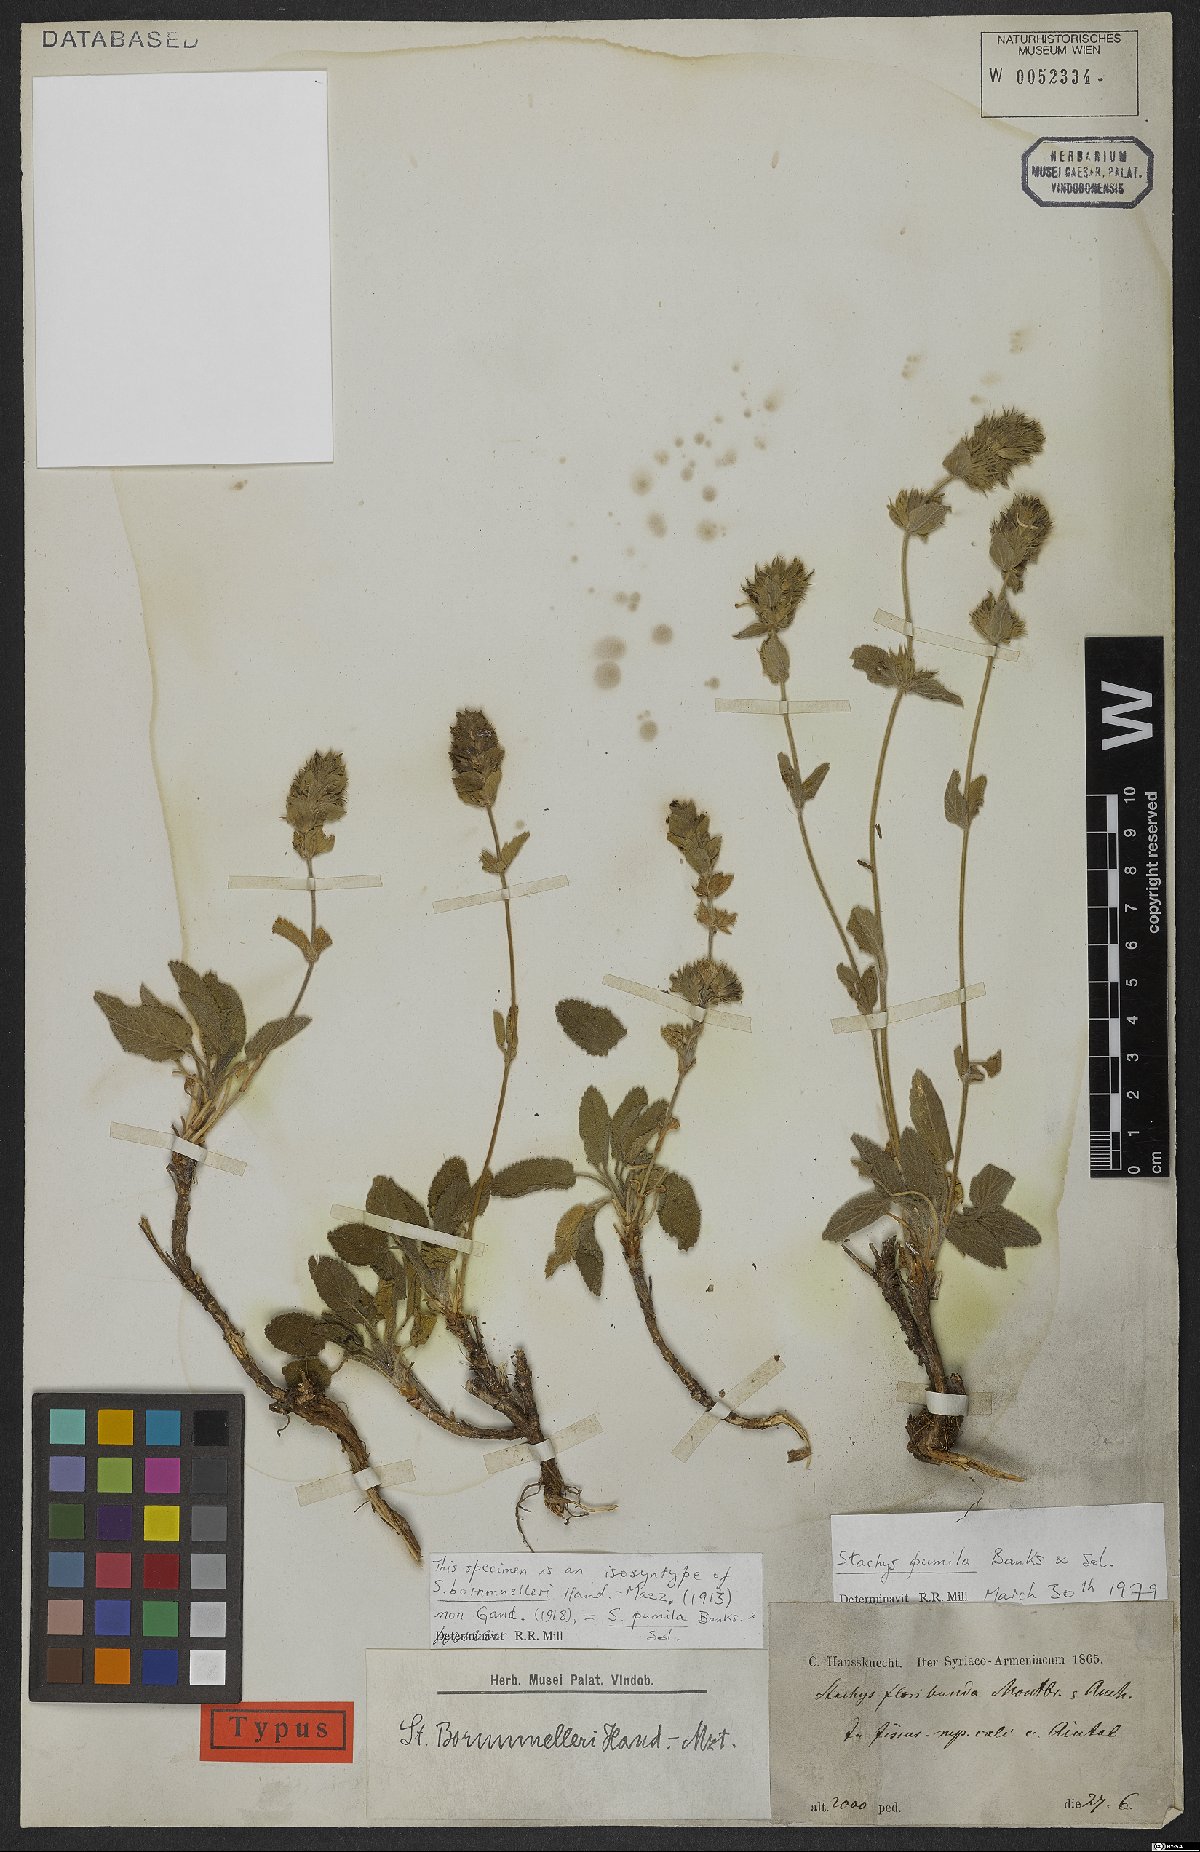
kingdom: Plantae
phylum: Tracheophyta
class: Magnoliopsida
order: Lamiales
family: Lamiaceae
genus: Stachys
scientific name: Stachys pumila
